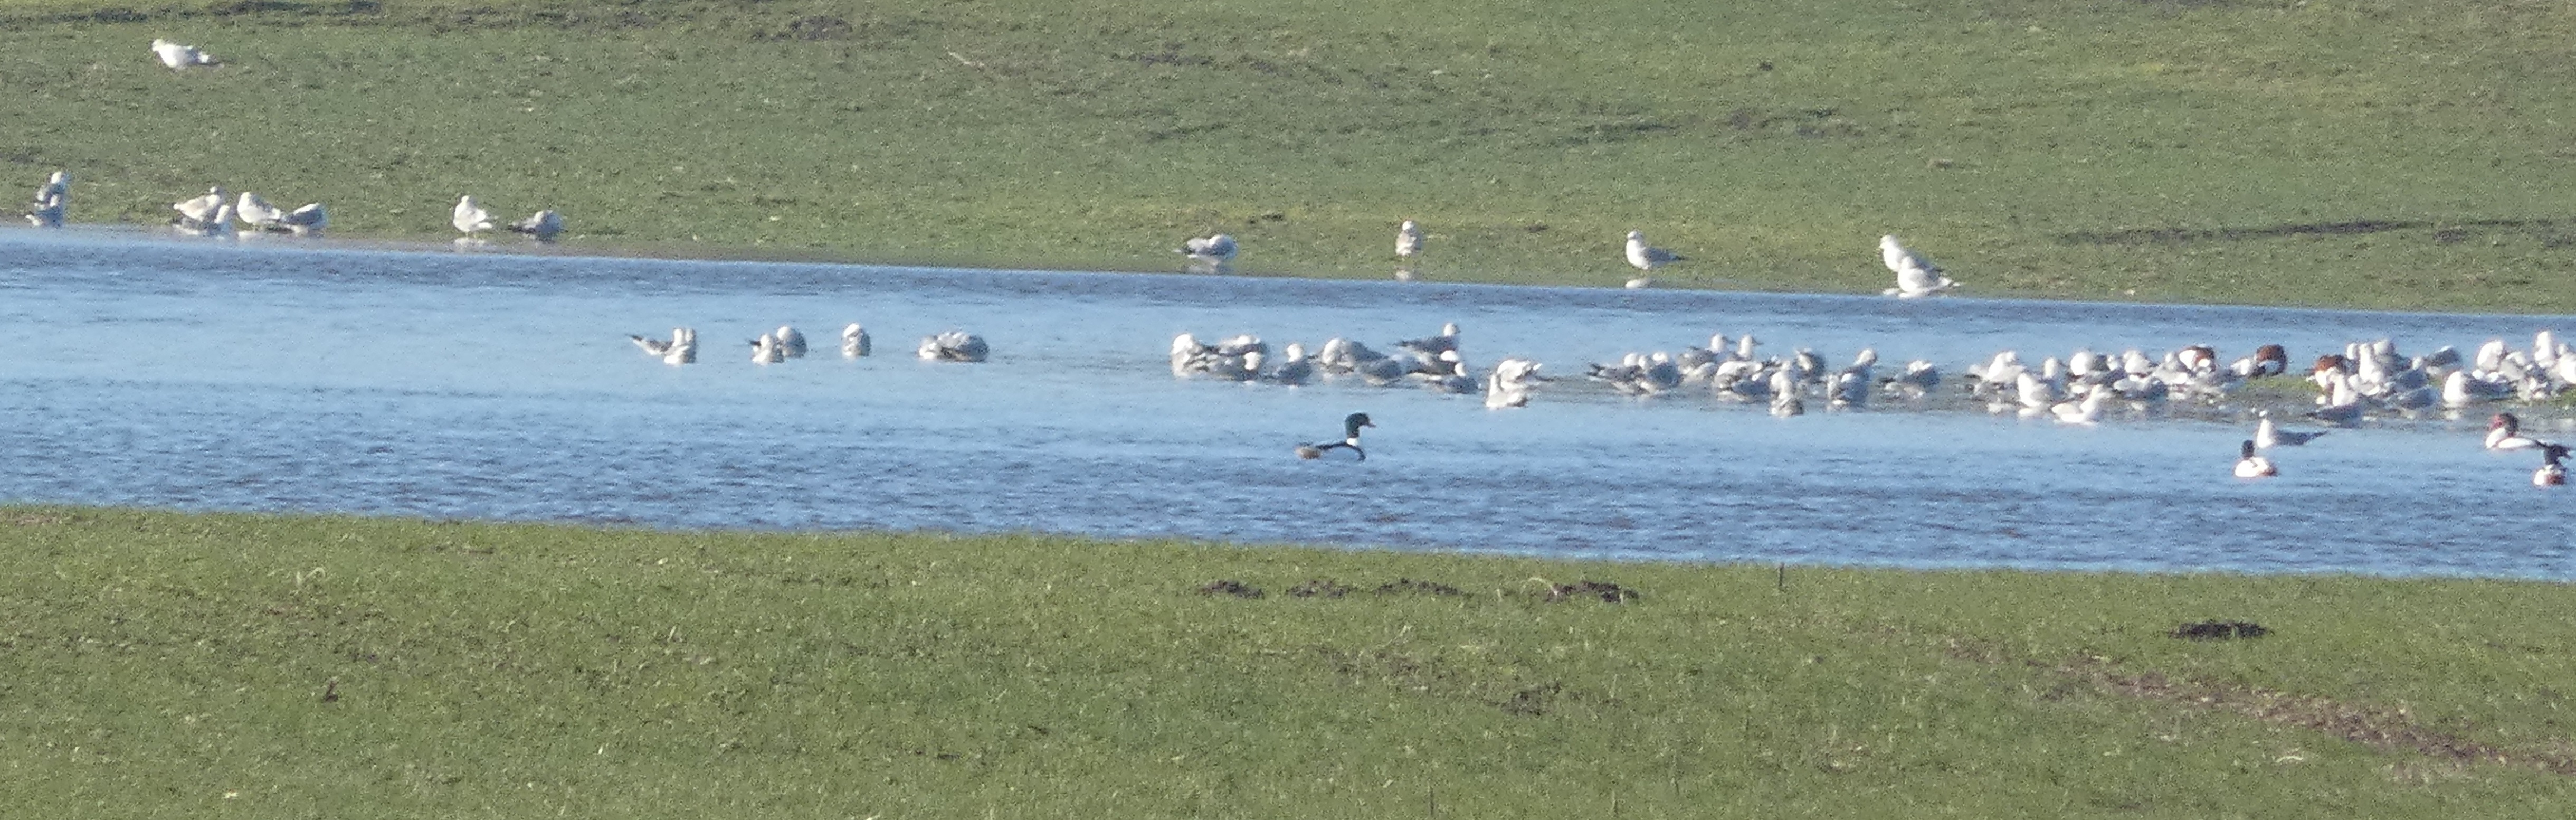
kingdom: Animalia
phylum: Chordata
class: Aves
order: Anseriformes
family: Anatidae
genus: Tadorna
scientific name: Tadorna tadorna
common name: Gravand
